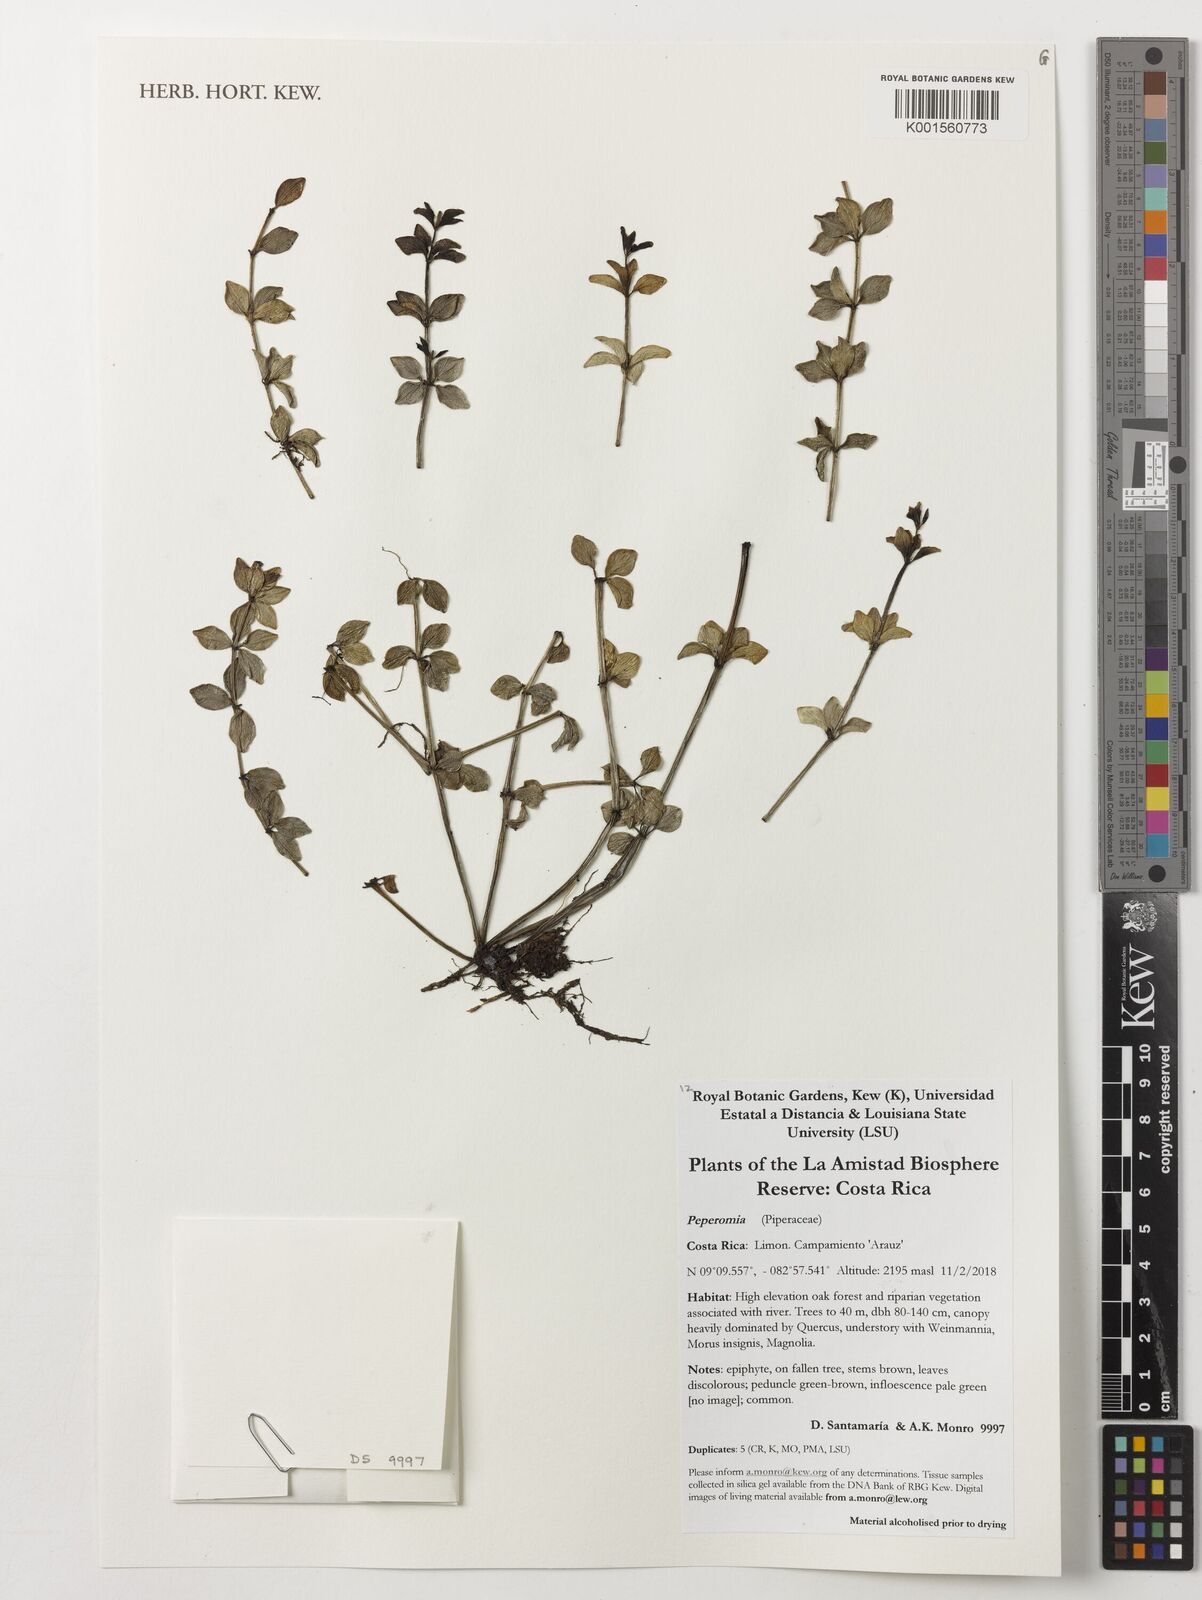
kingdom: Plantae
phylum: Tracheophyta
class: Magnoliopsida
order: Piperales
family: Piperaceae
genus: Peperomia
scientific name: Peperomia
